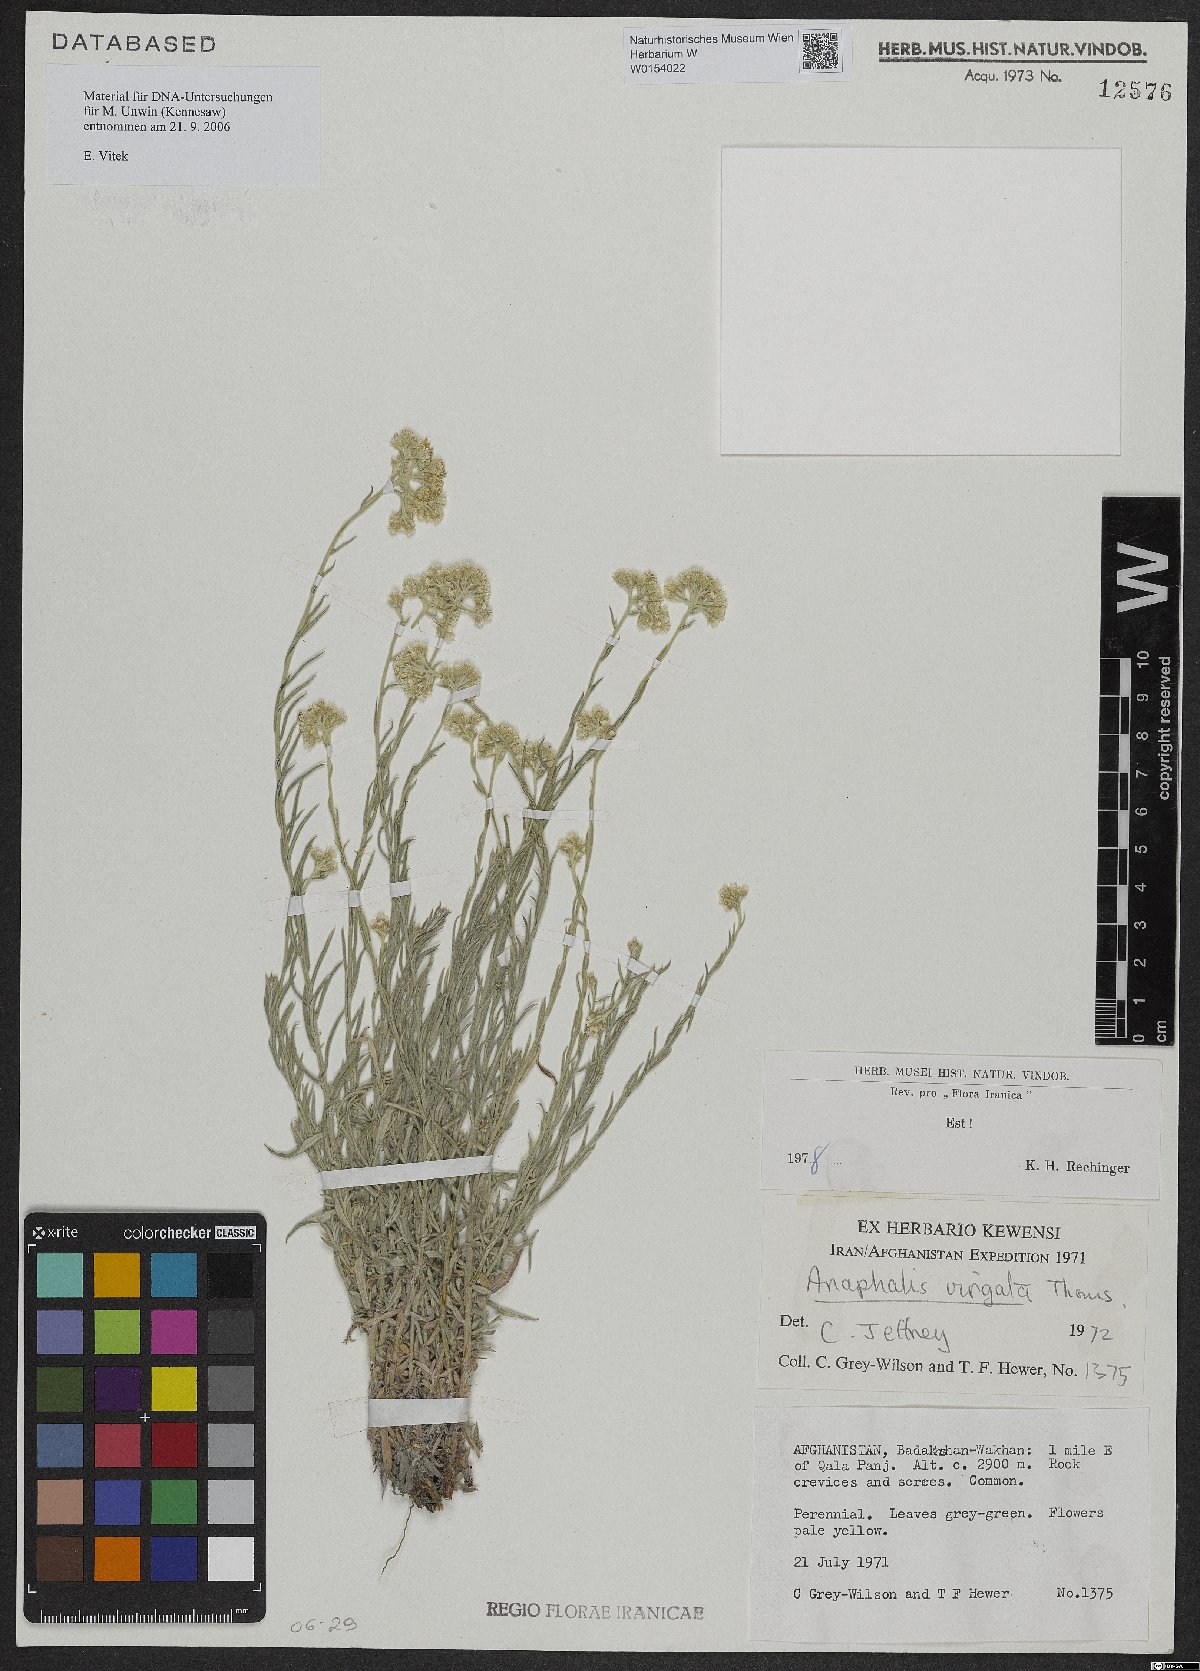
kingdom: Plantae
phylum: Tracheophyta
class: Magnoliopsida
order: Asterales
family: Asteraceae
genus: Anaphalis
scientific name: Anaphalis virgata
